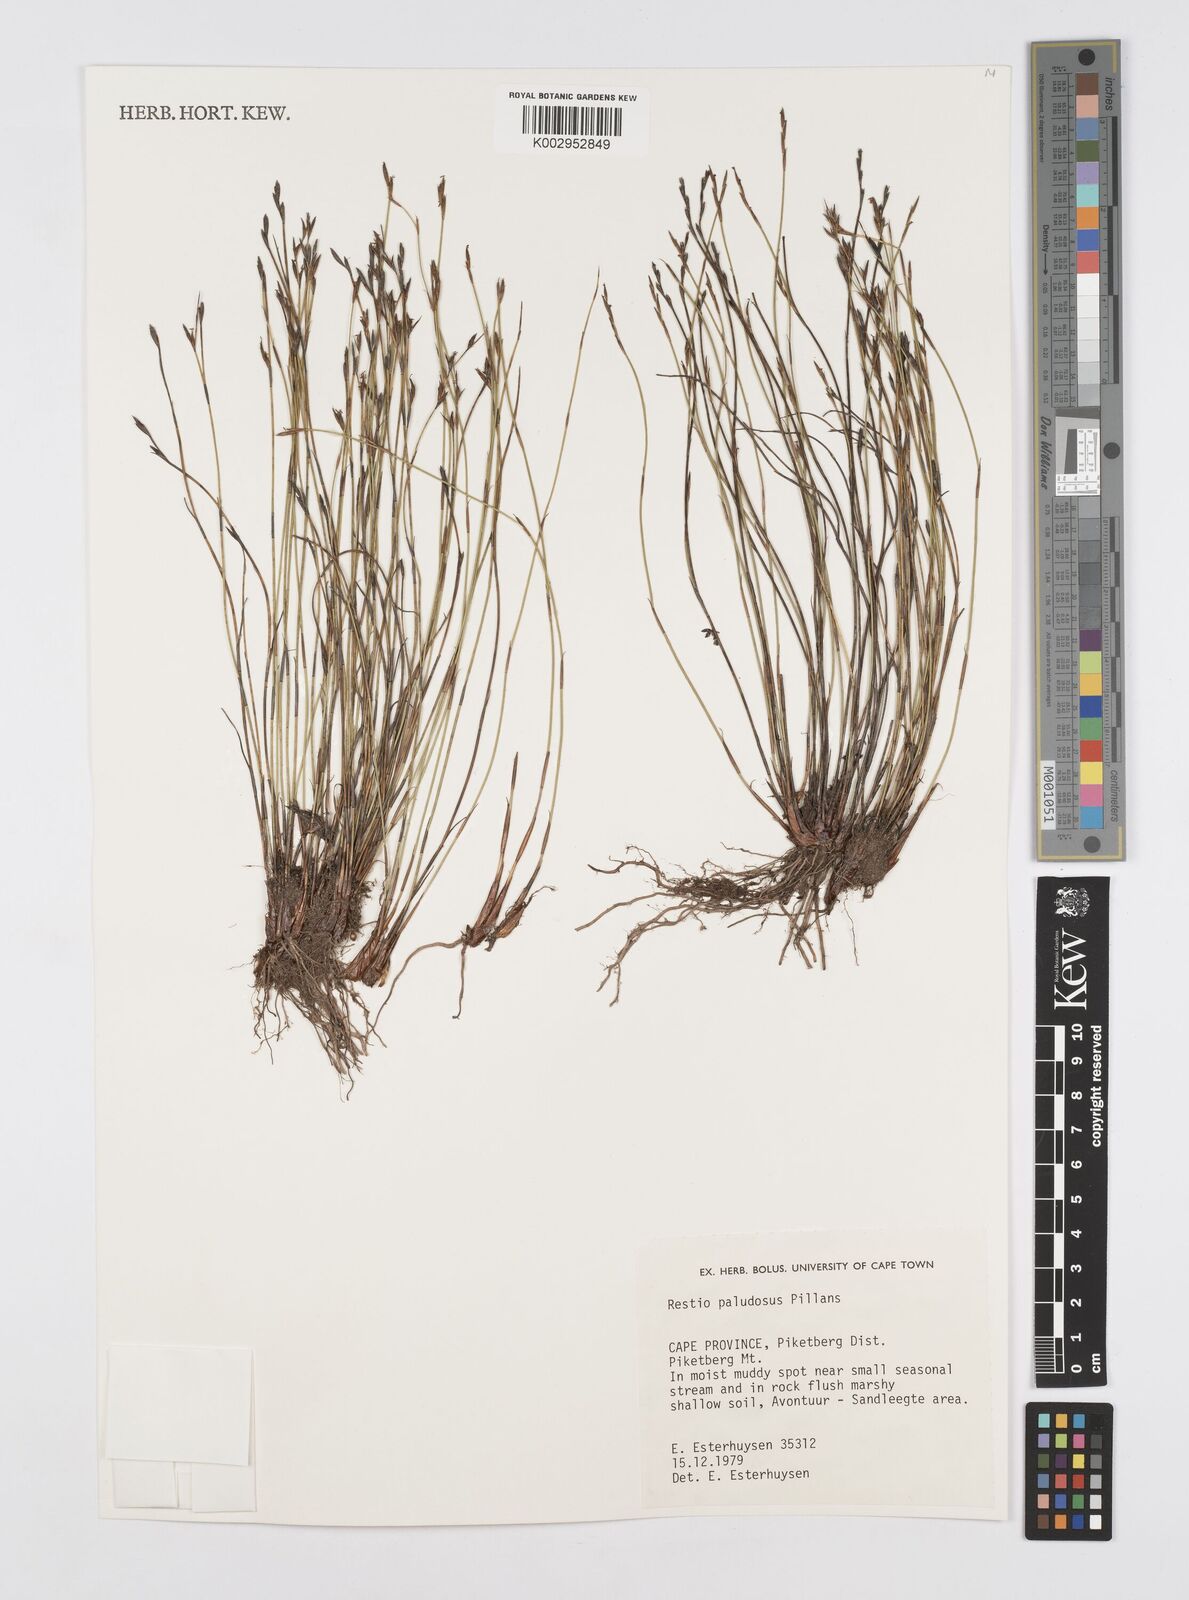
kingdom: Plantae
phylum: Tracheophyta
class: Liliopsida
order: Poales
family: Restionaceae
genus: Restio
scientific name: Restio paludosus
